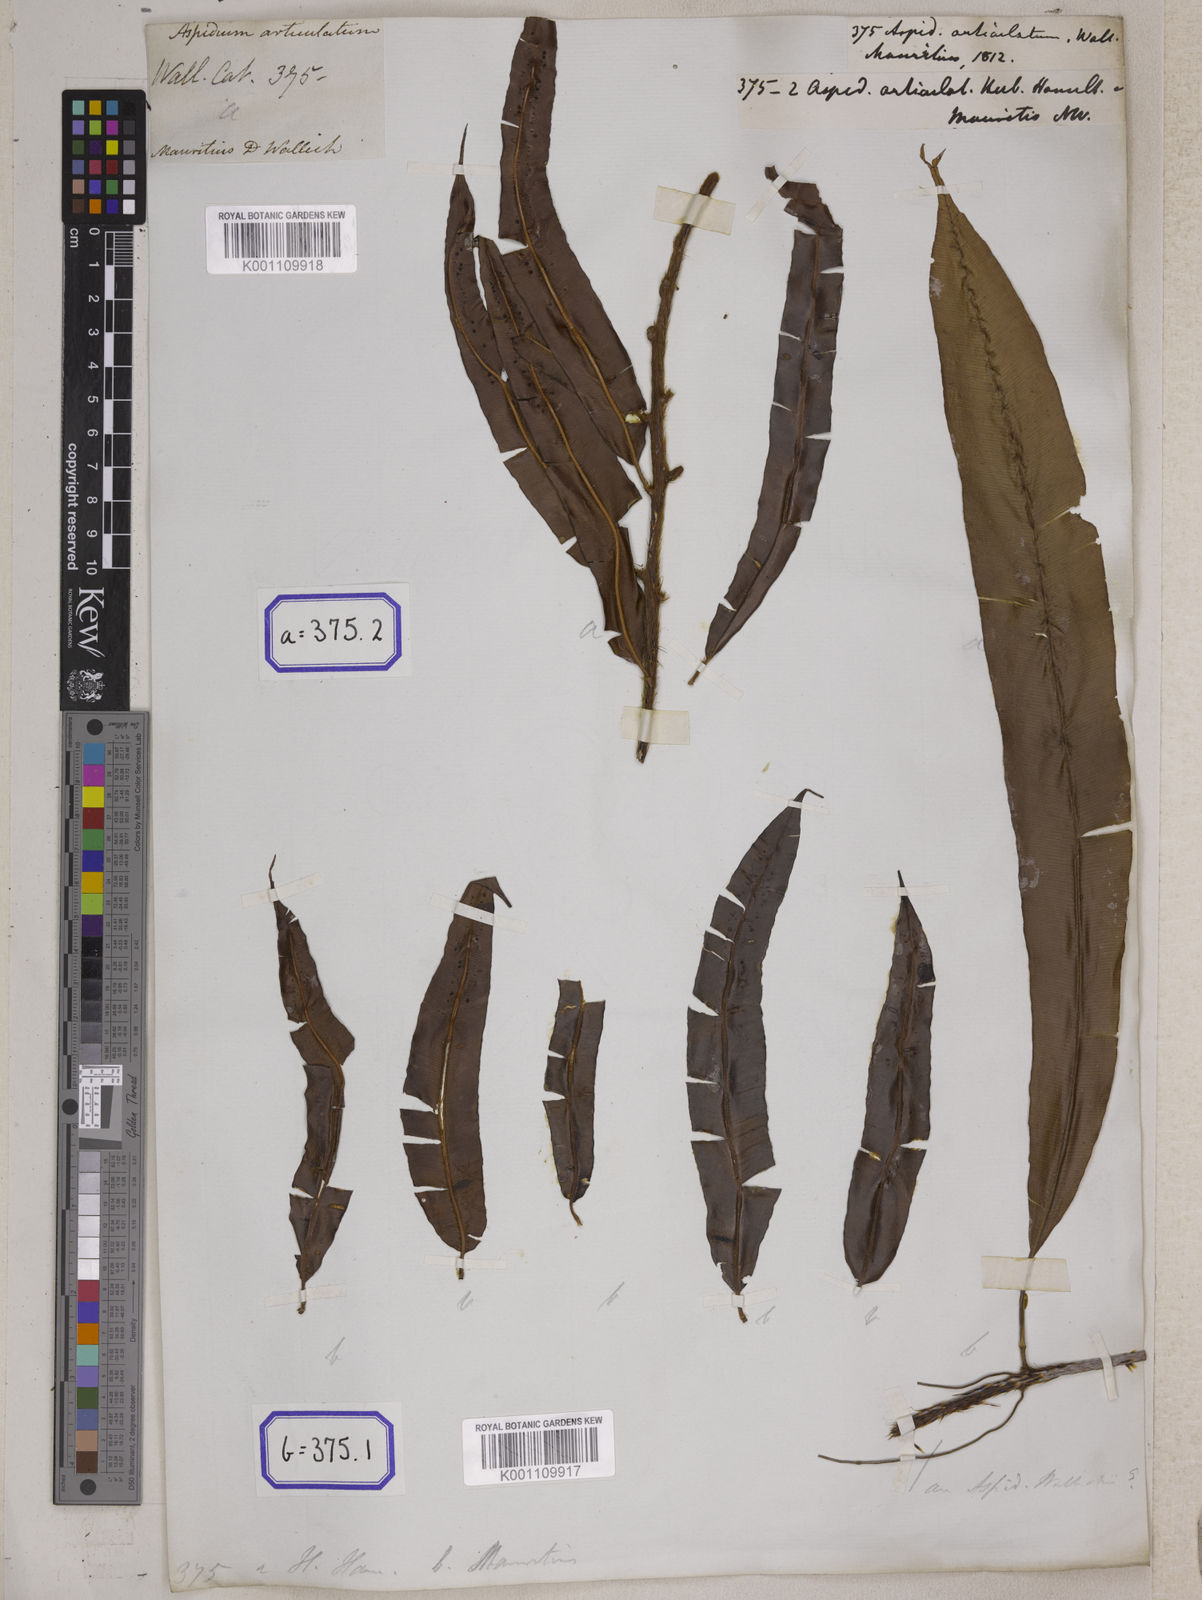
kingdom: Plantae
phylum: Tracheophyta
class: Polypodiopsida
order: Polypodiales
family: Tectariaceae
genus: Tectaria
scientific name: Tectaria Aspidium spec
